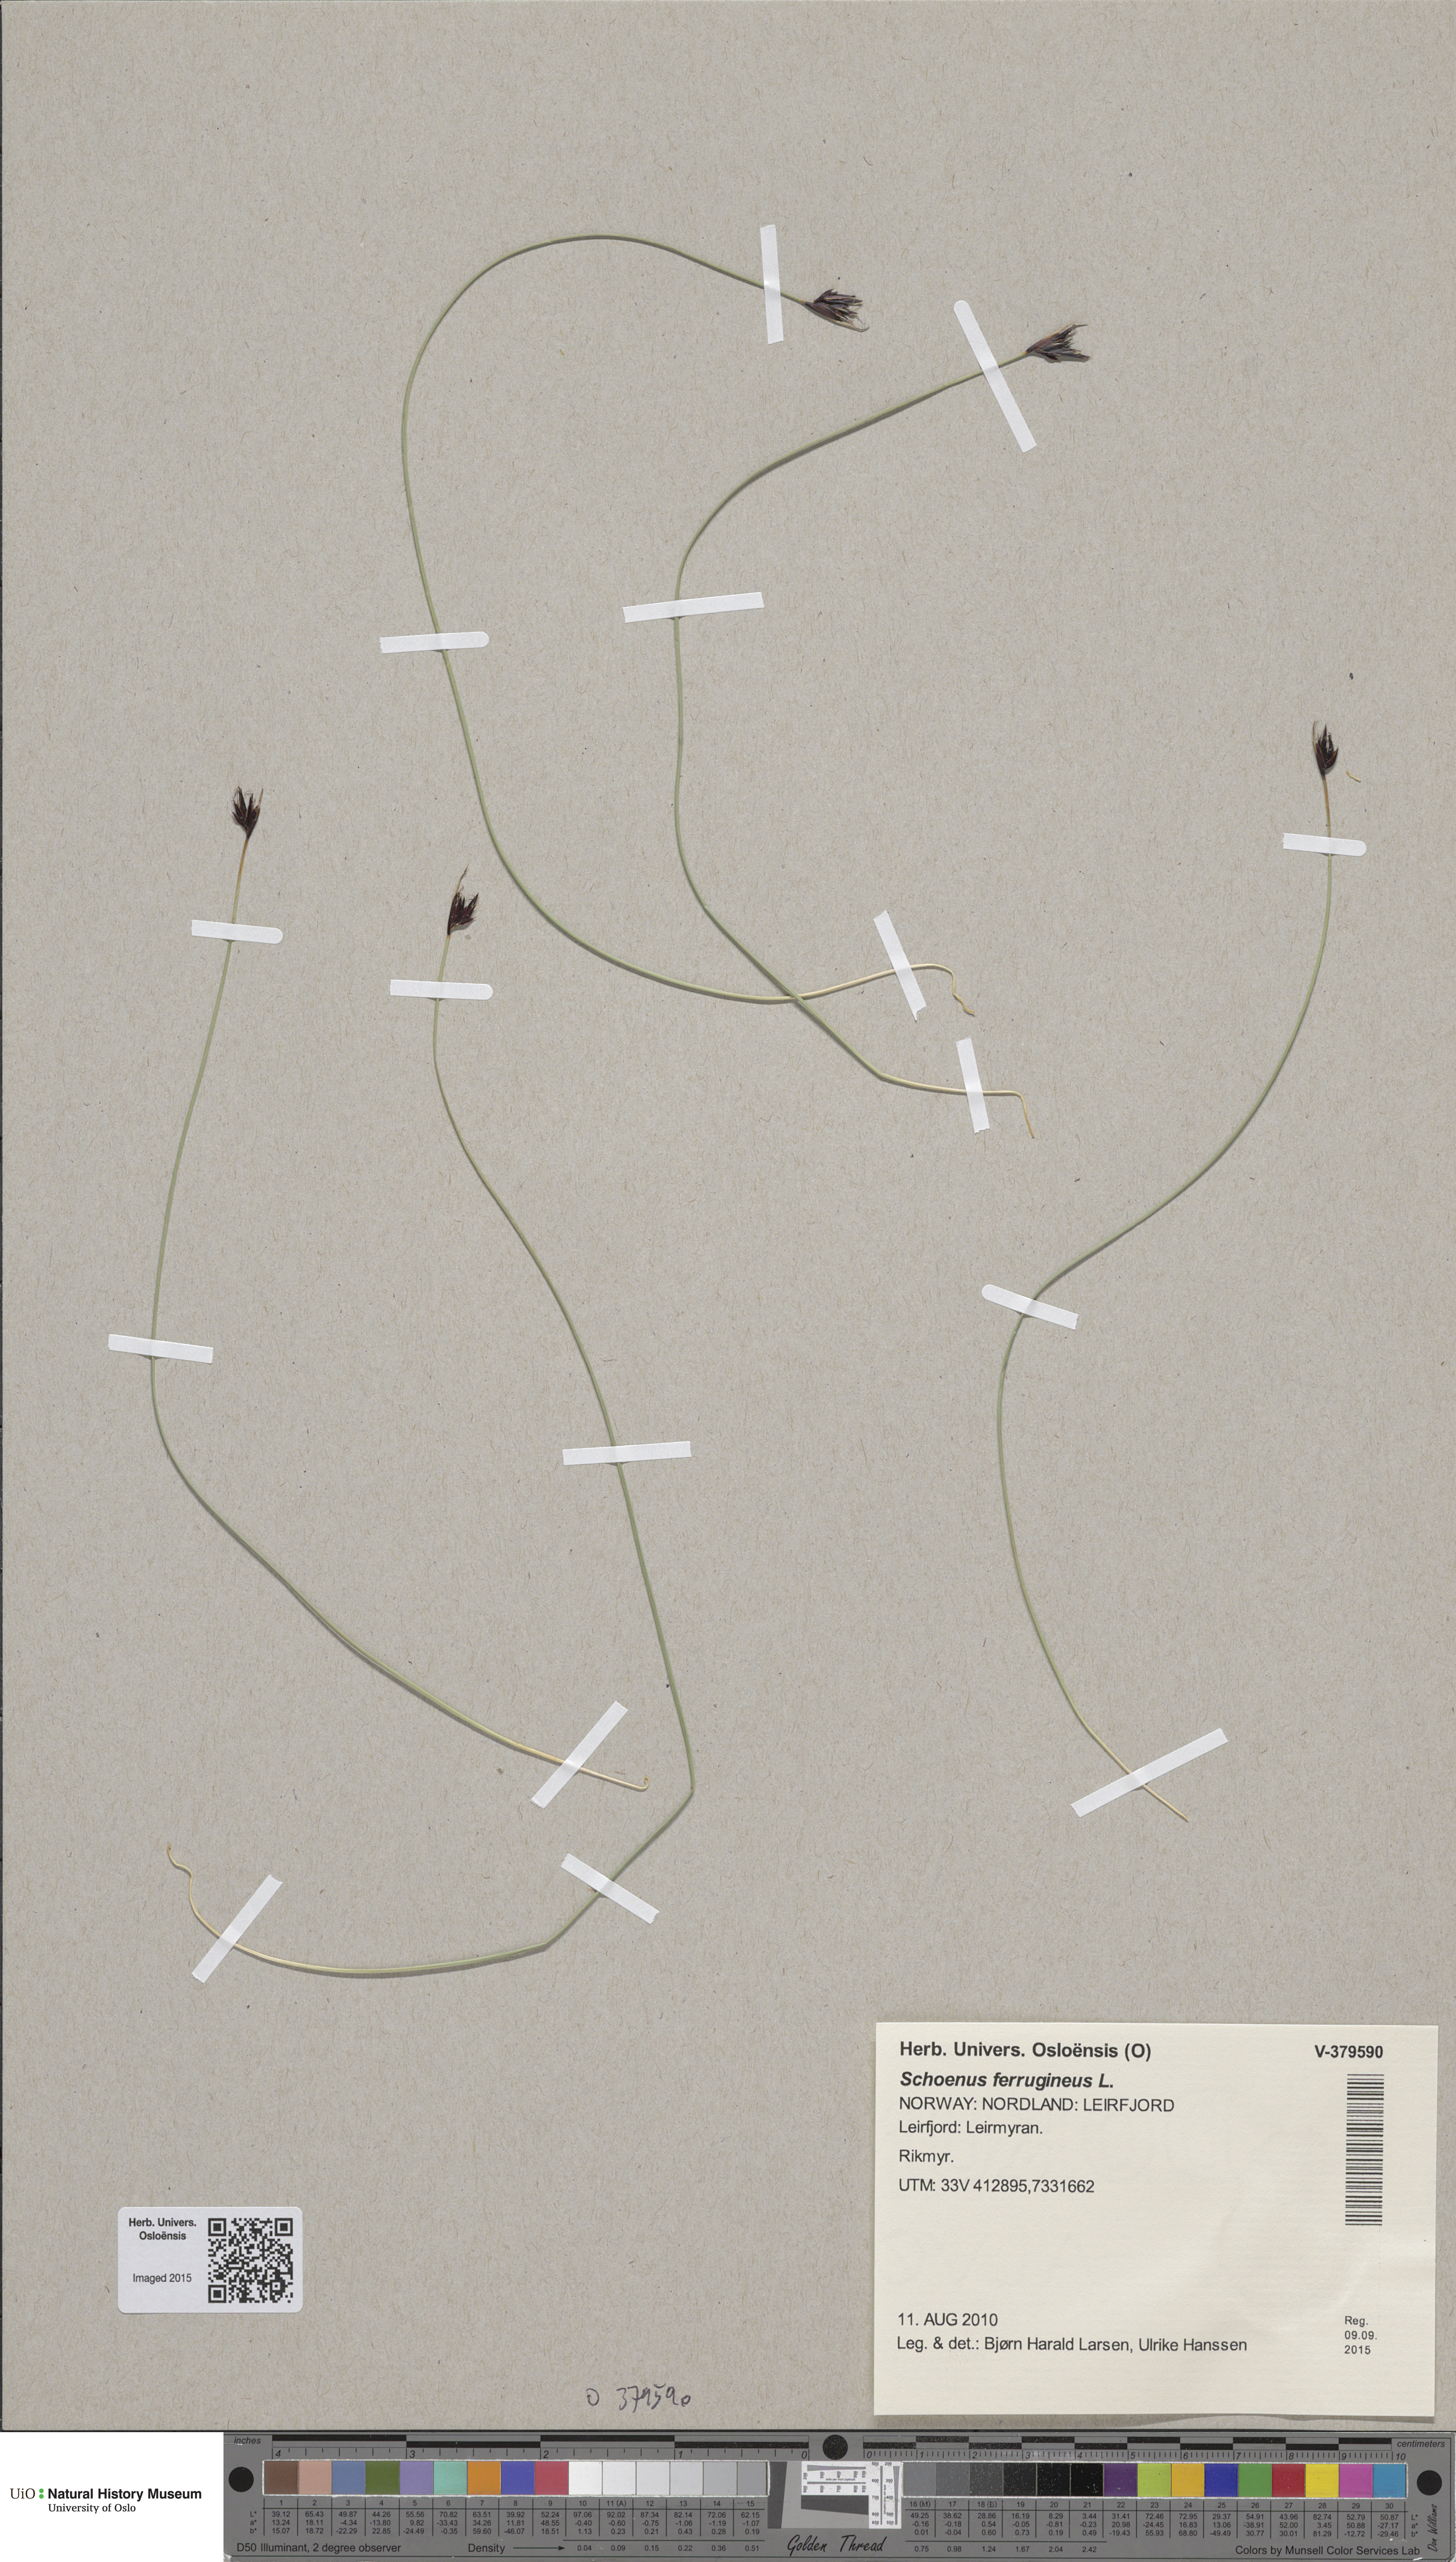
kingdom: Plantae
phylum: Tracheophyta
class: Liliopsida
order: Poales
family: Cyperaceae
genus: Schoenus
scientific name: Schoenus ferrugineus
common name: Brown bog-rush
